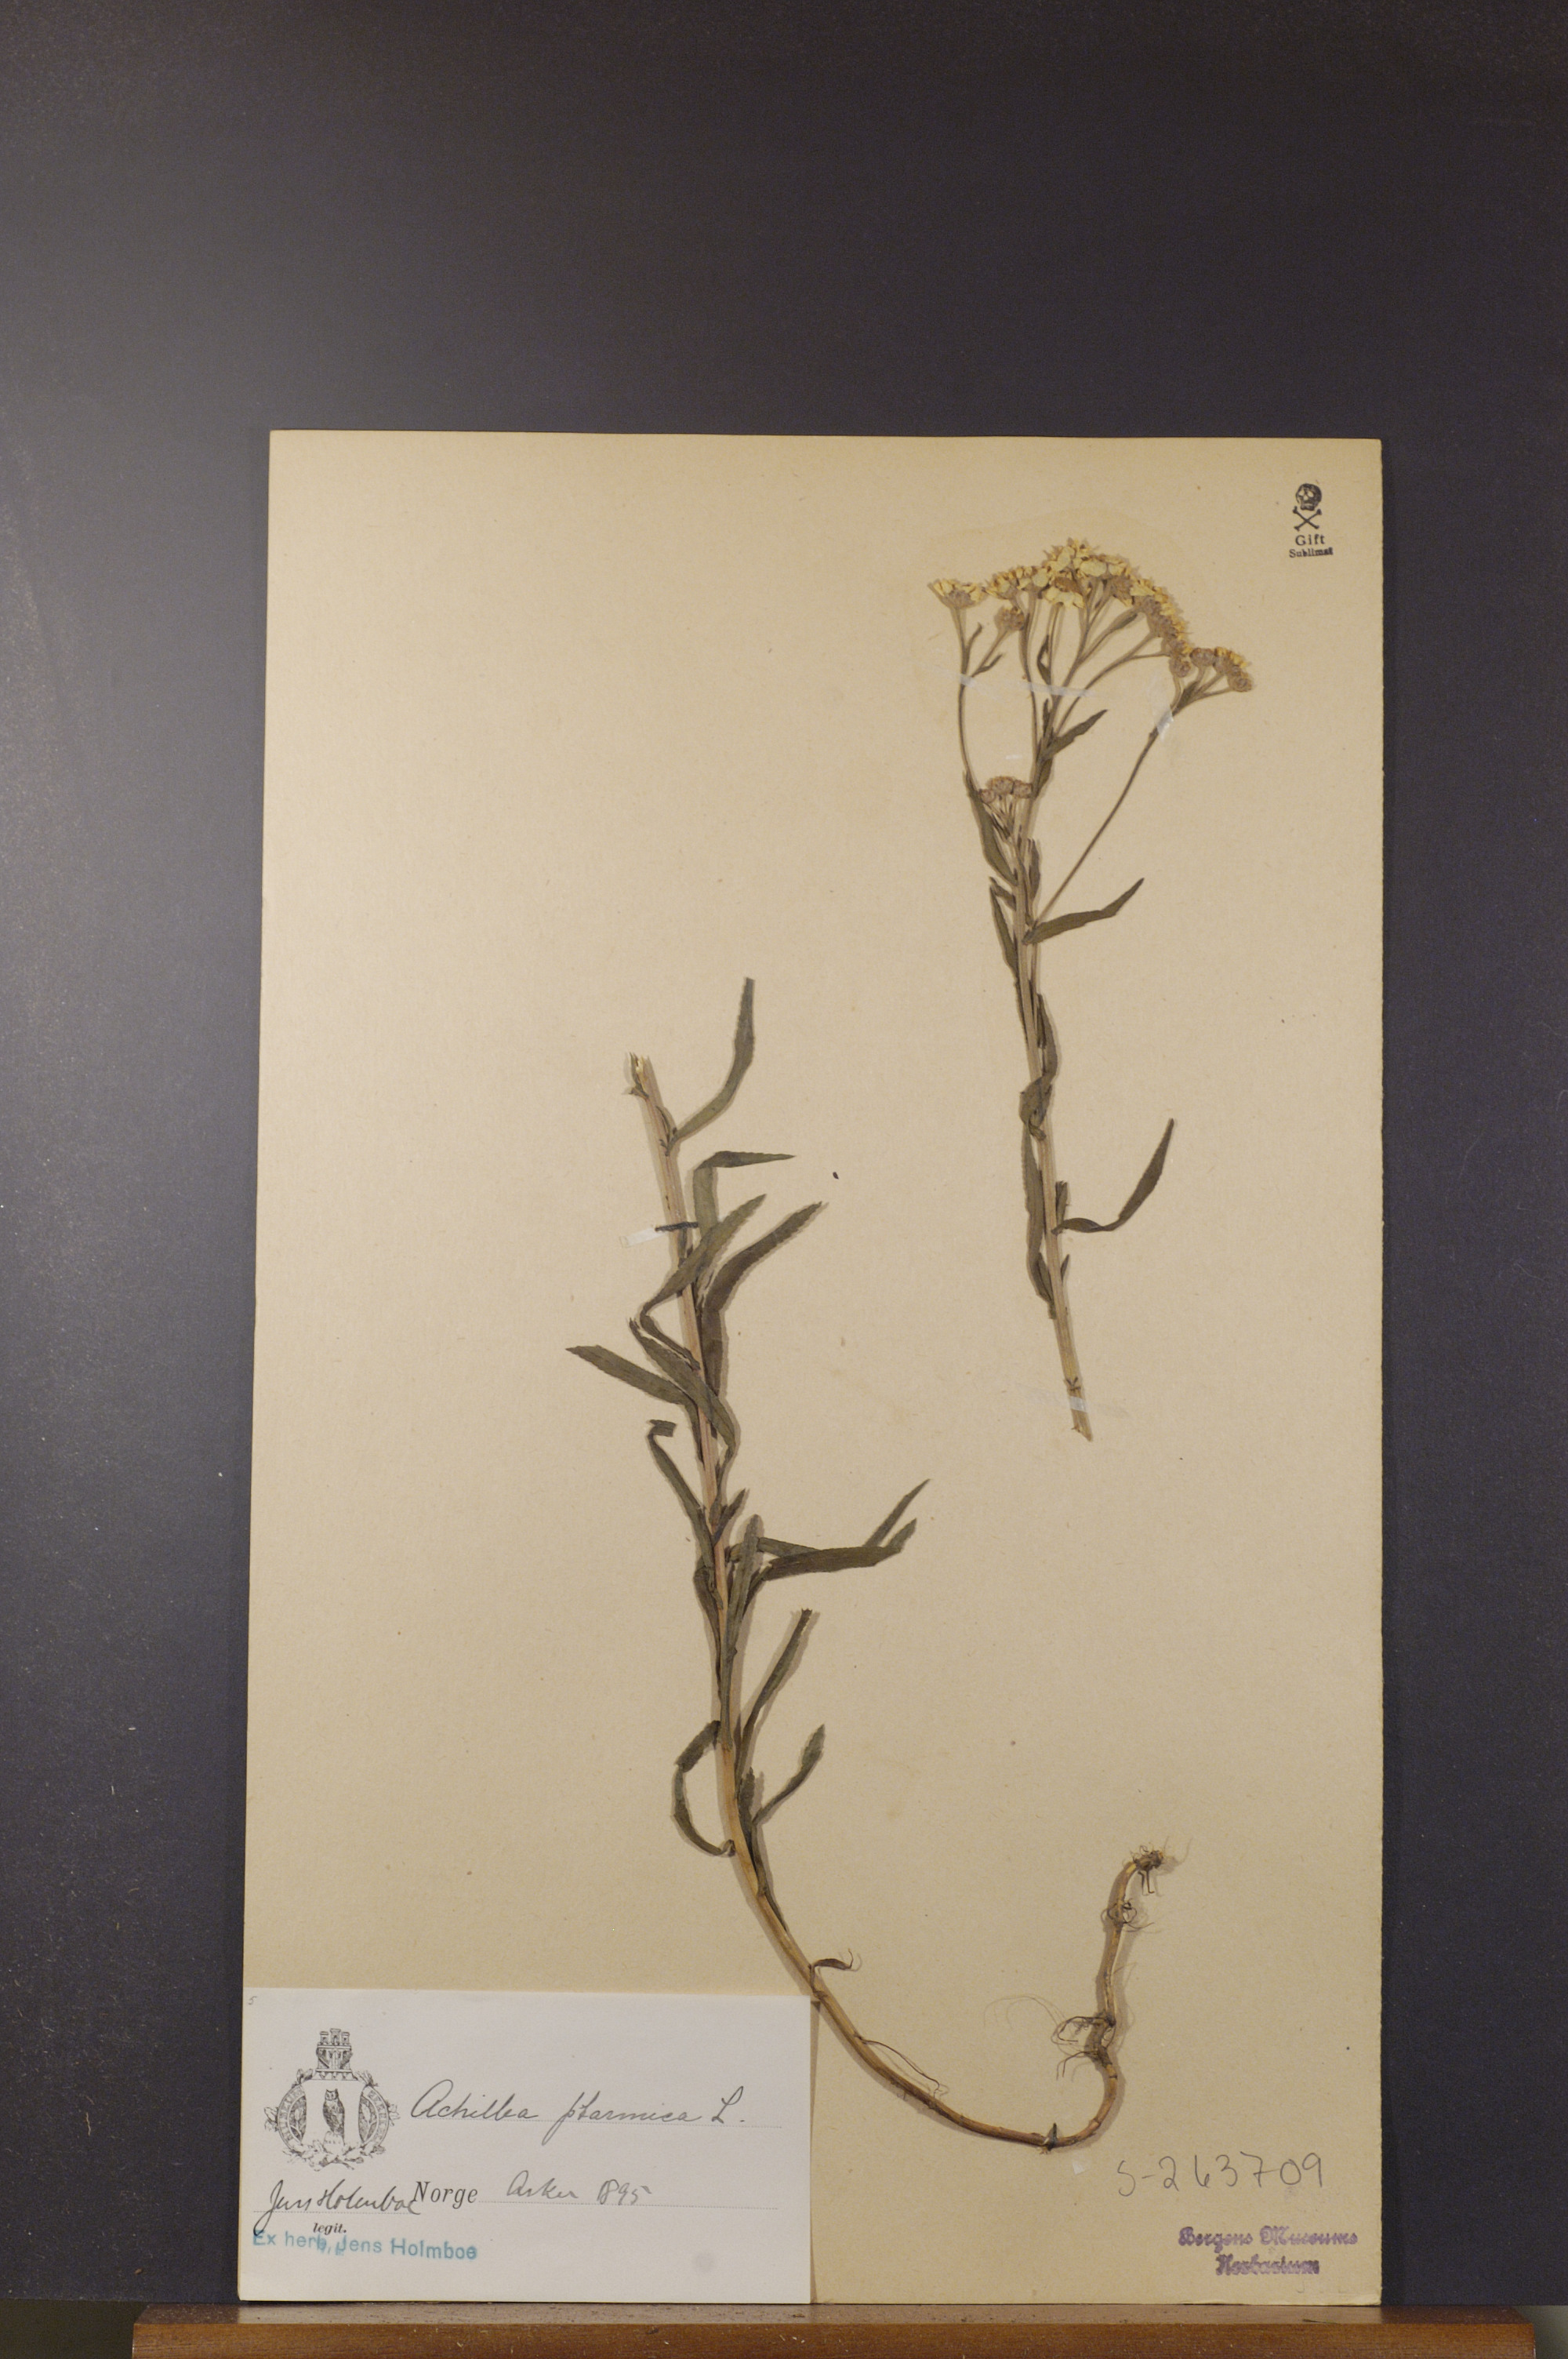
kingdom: Plantae
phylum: Tracheophyta
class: Magnoliopsida
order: Asterales
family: Asteraceae
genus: Achillea
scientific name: Achillea ptarmica
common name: Sneezeweed
